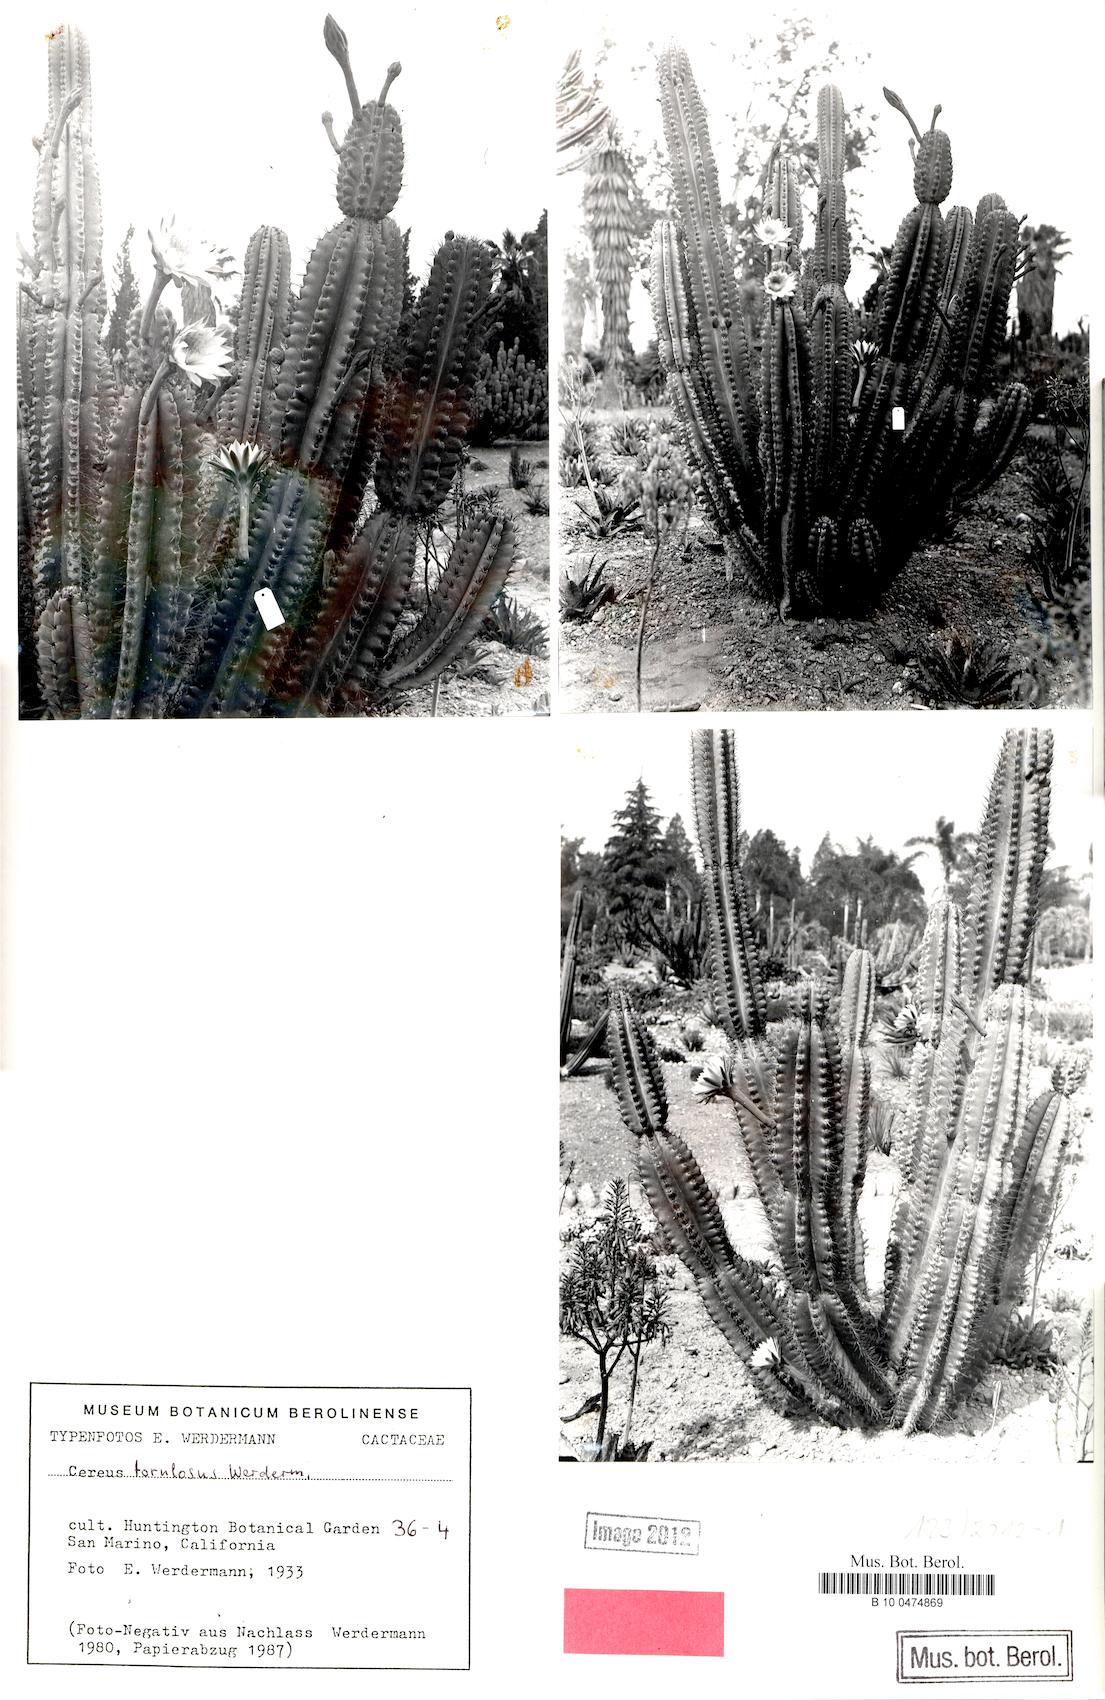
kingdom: Plantae
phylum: Tracheophyta
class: Magnoliopsida
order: Caryophyllales
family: Cactaceae
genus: Cereus
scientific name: Cereus torulosus
